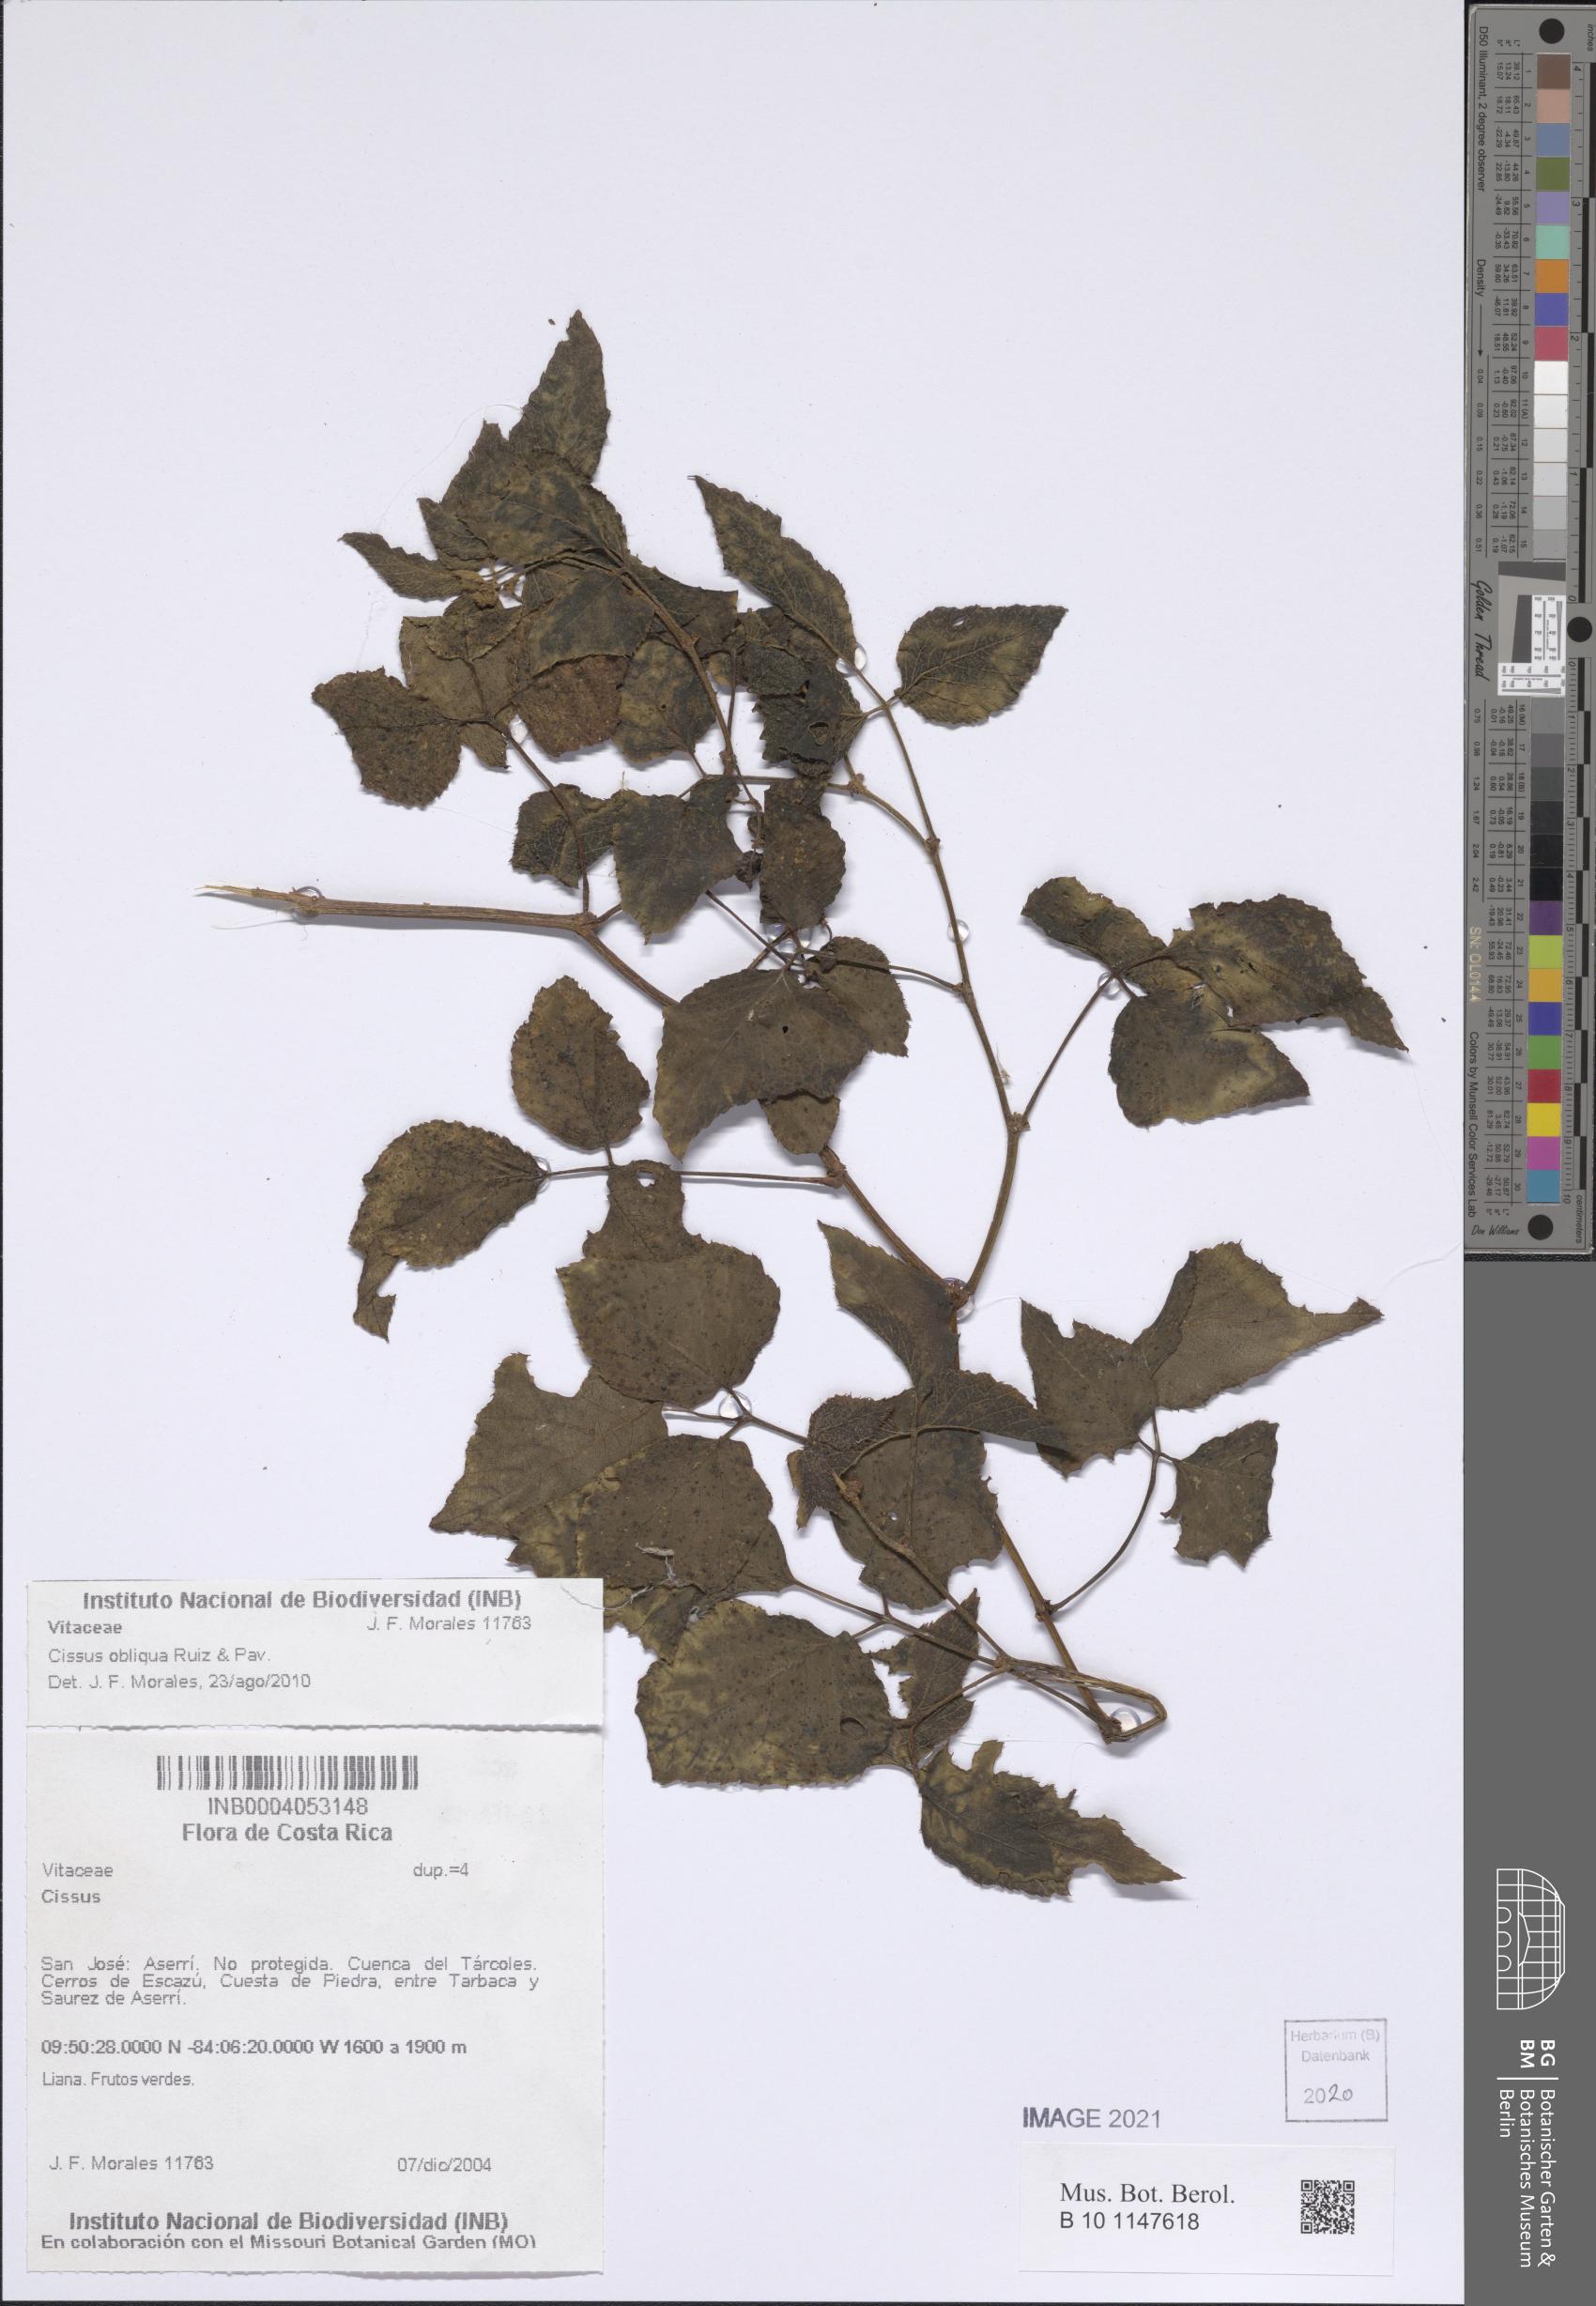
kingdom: Plantae
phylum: Tracheophyta
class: Magnoliopsida
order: Vitales
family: Vitaceae
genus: Cissus
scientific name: Cissus obliqua
